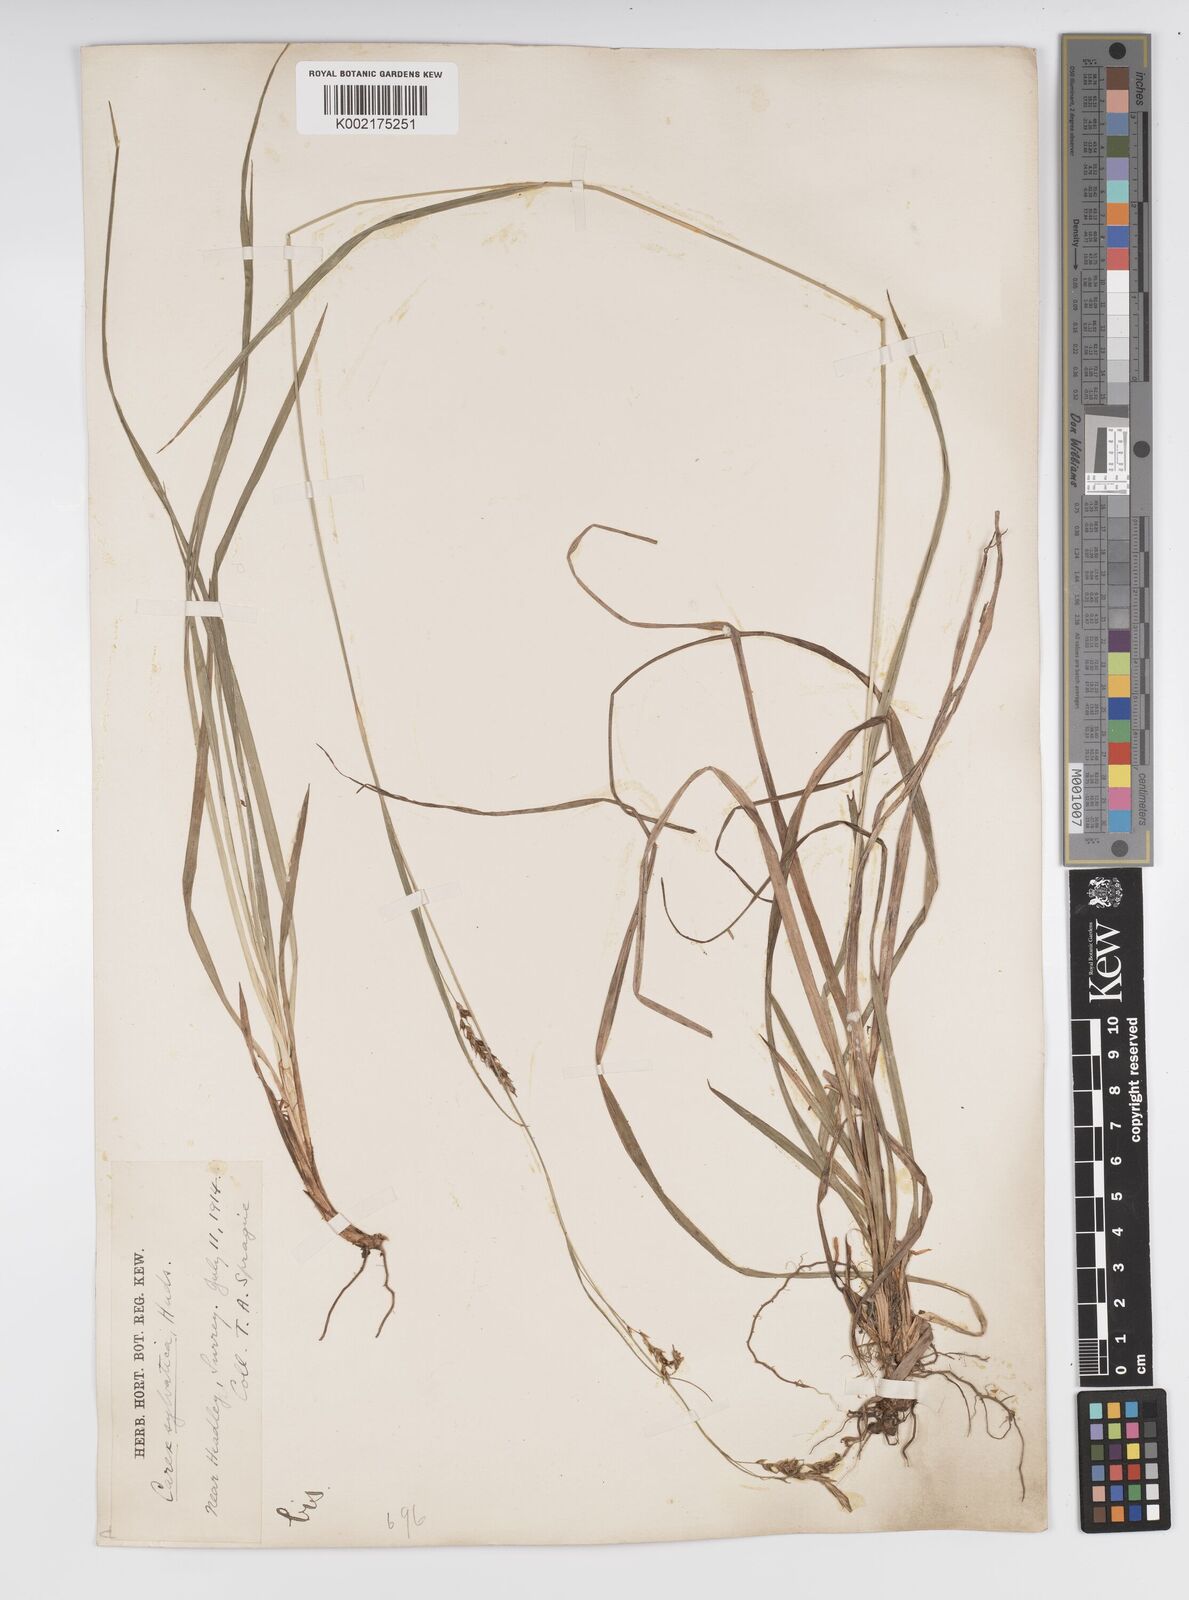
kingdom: Plantae
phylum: Tracheophyta
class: Liliopsida
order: Poales
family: Cyperaceae
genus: Carex
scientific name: Carex sylvatica
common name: Wood-sedge
